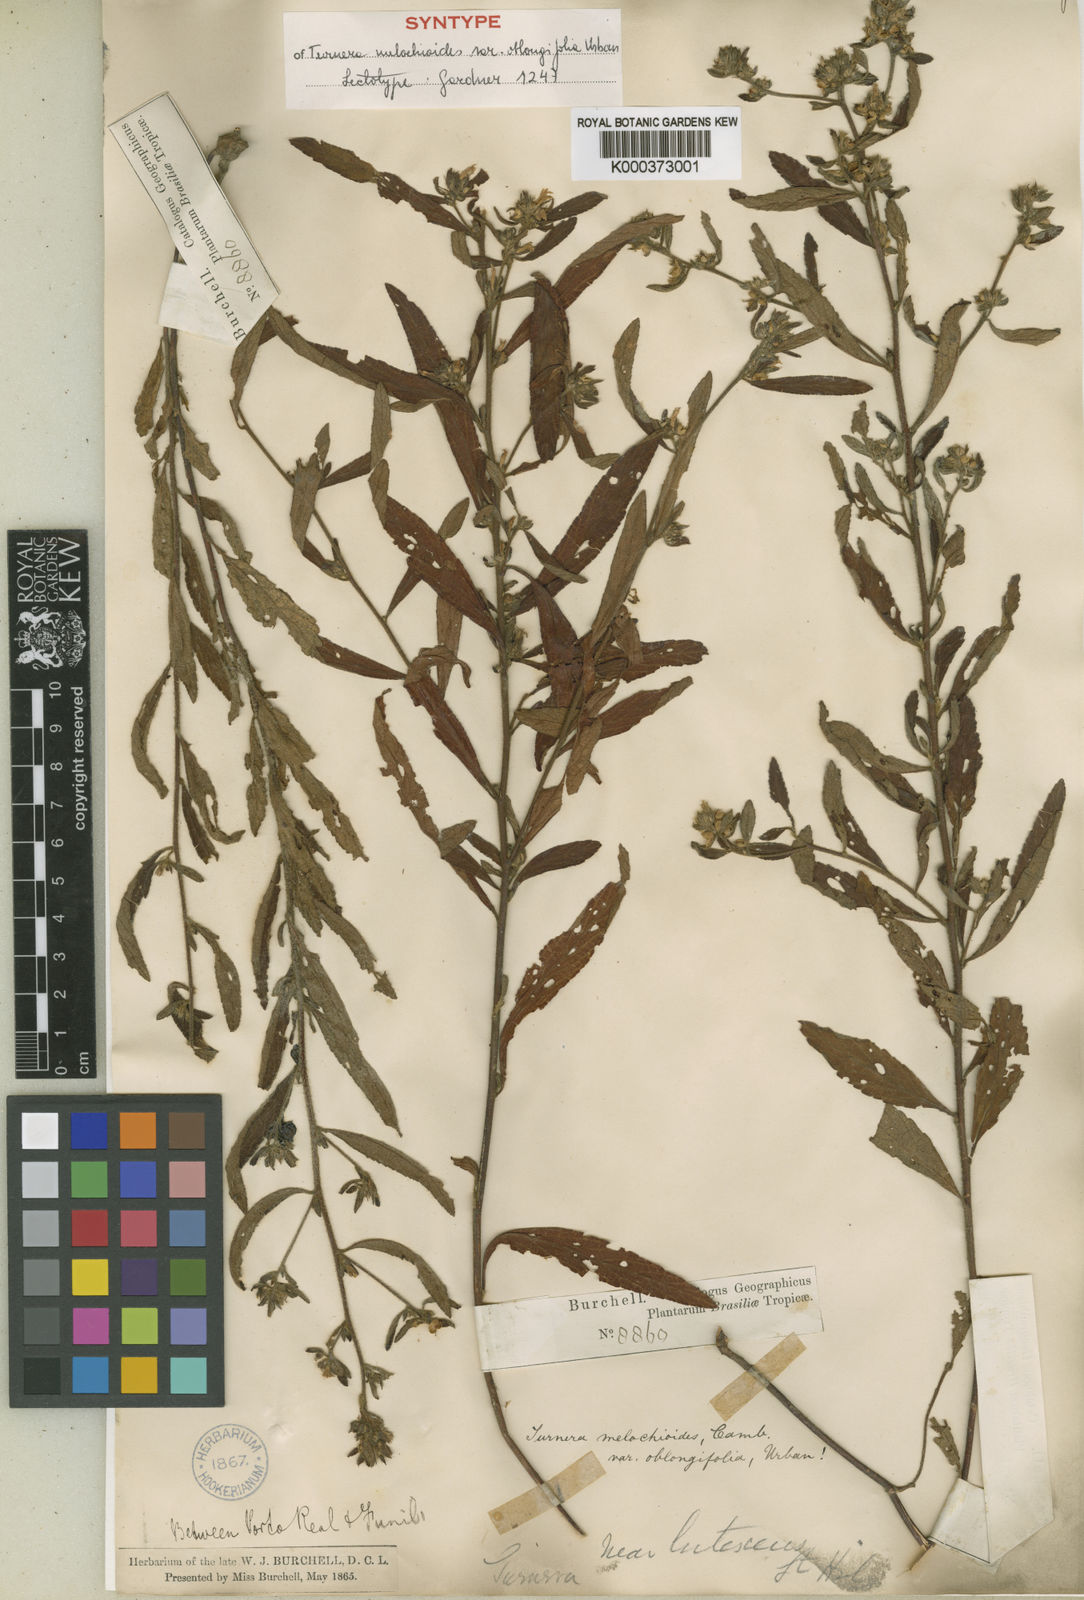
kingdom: Plantae
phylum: Tracheophyta
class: Magnoliopsida
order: Malpighiales
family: Turneraceae
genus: Turnera
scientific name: Turnera arenaria
